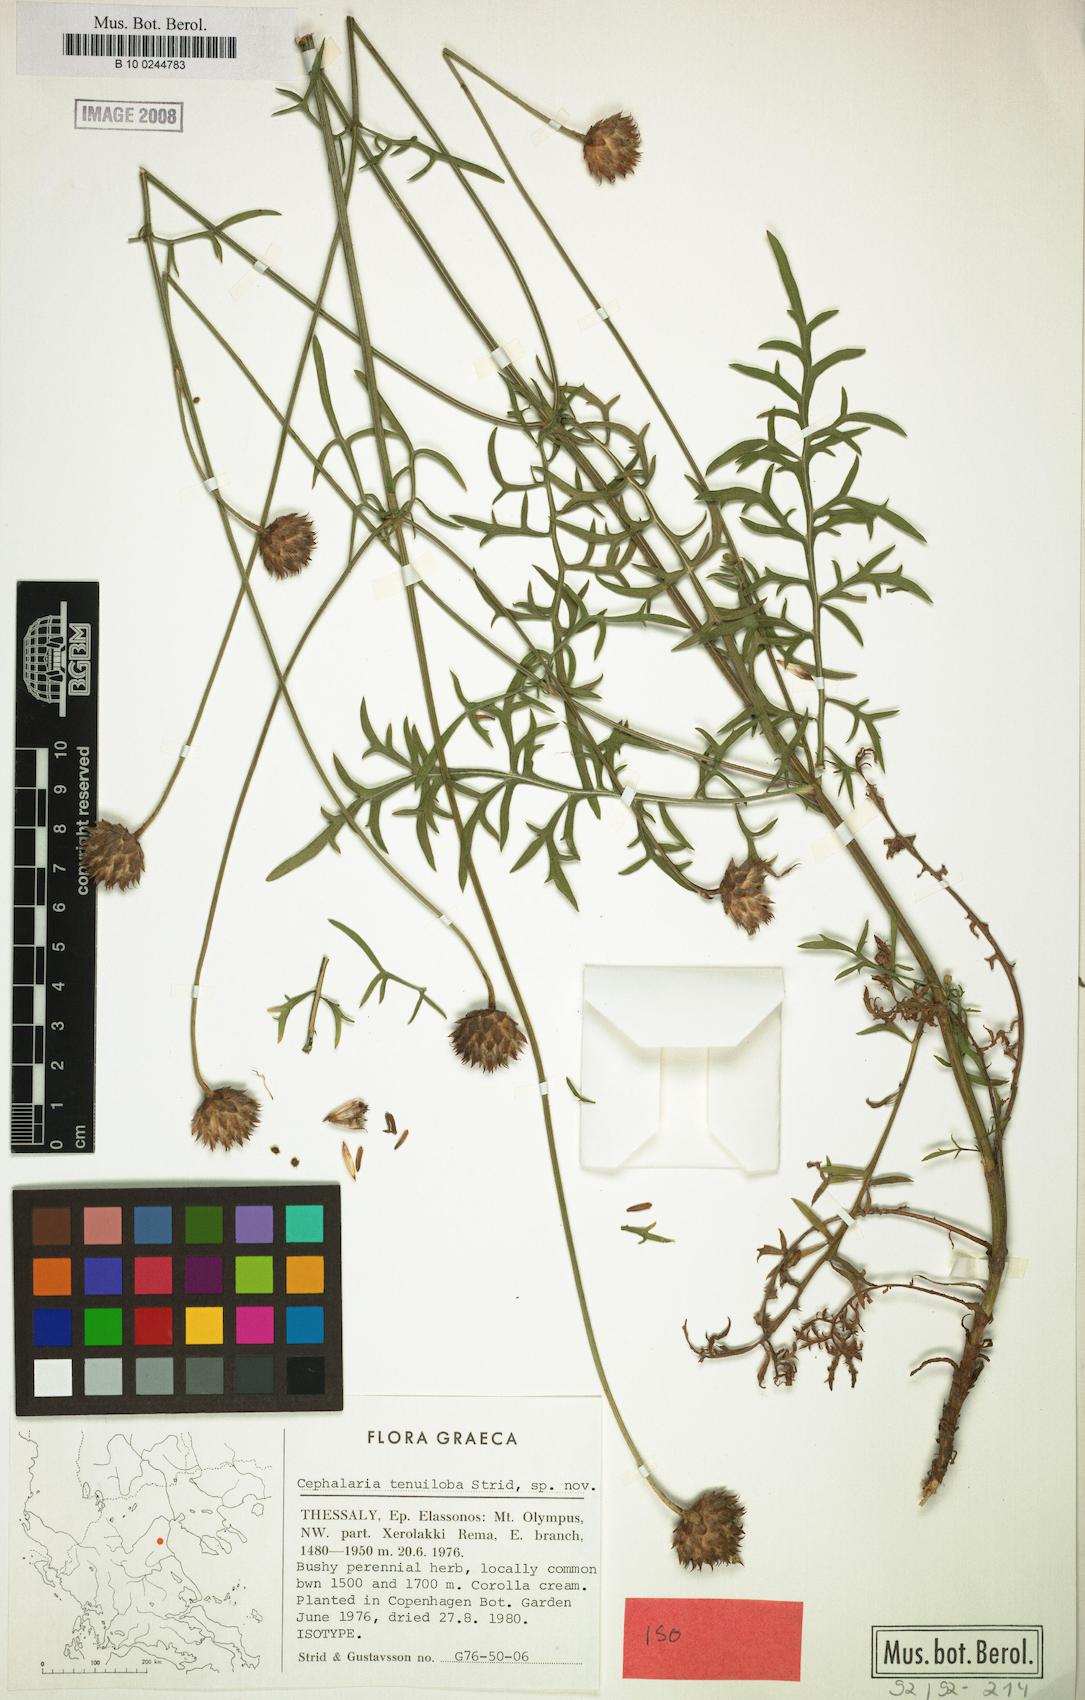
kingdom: Plantae
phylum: Tracheophyta
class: Magnoliopsida
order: Dipsacales
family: Caprifoliaceae
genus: Cephalaria
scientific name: Cephalaria tenuiloba
